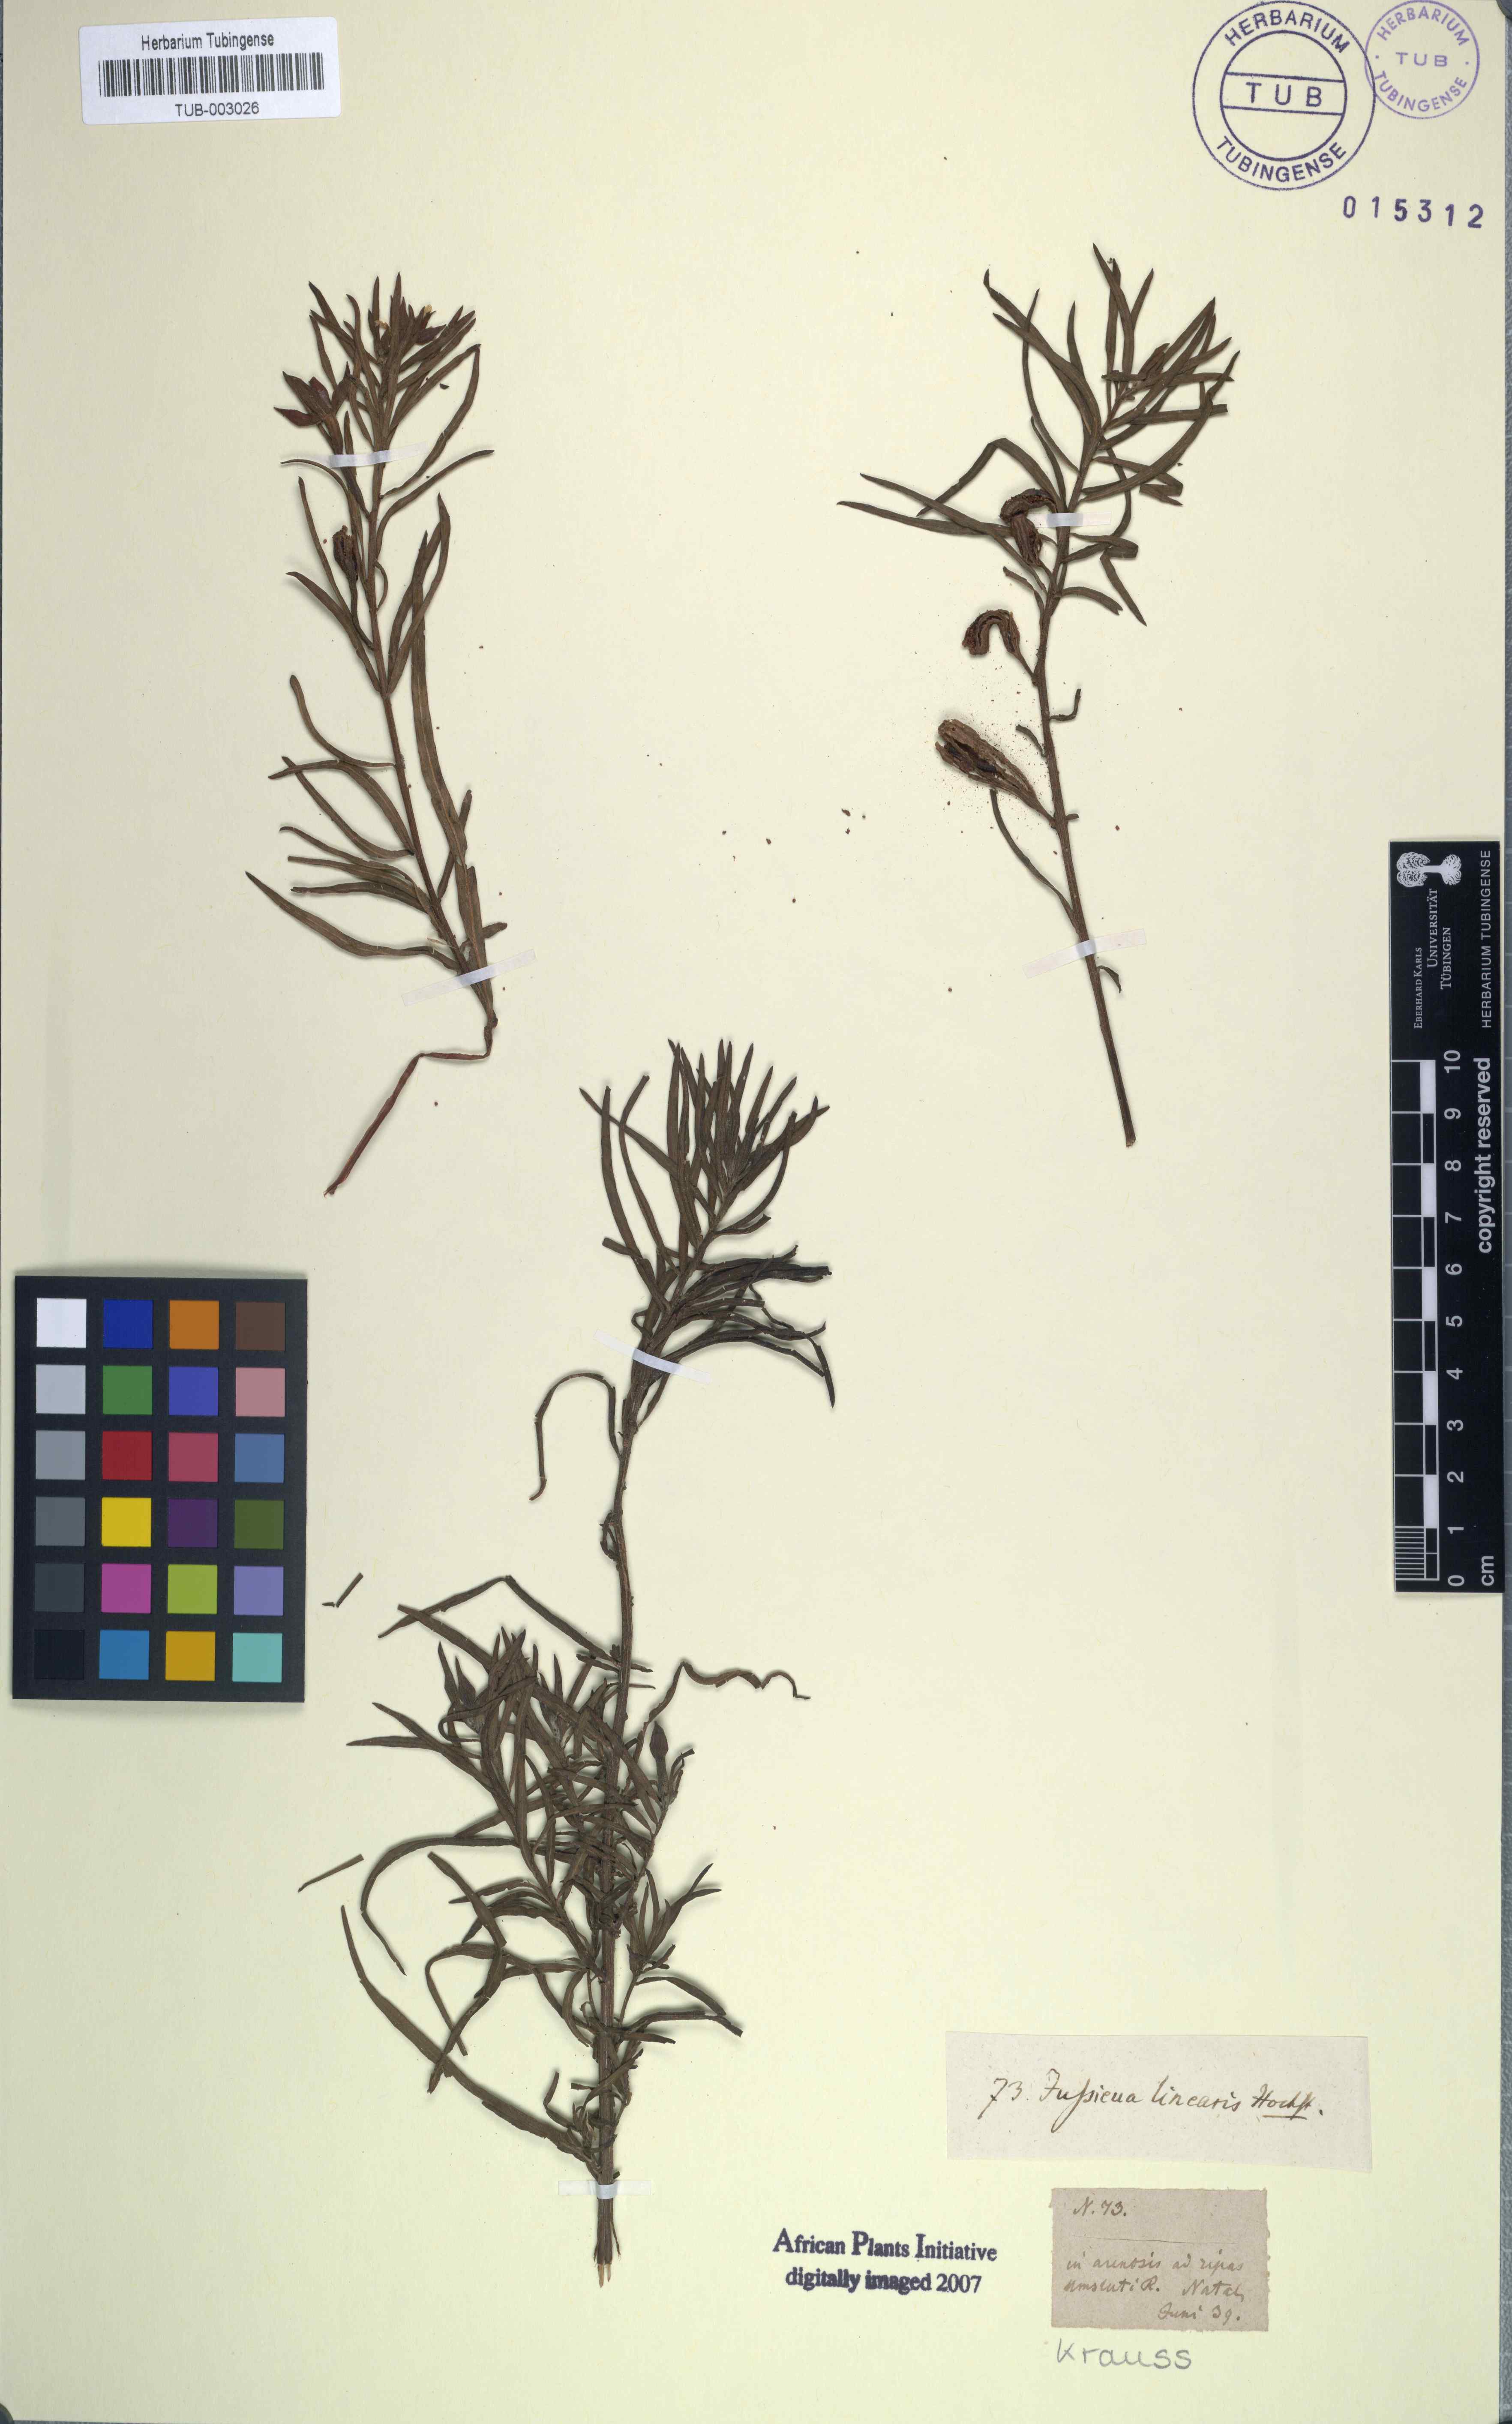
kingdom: Plantae
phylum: Tracheophyta
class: Magnoliopsida
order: Myrtales
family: Onagraceae
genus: Ludwigia
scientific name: Ludwigia octovalvis
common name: Water-primrose
